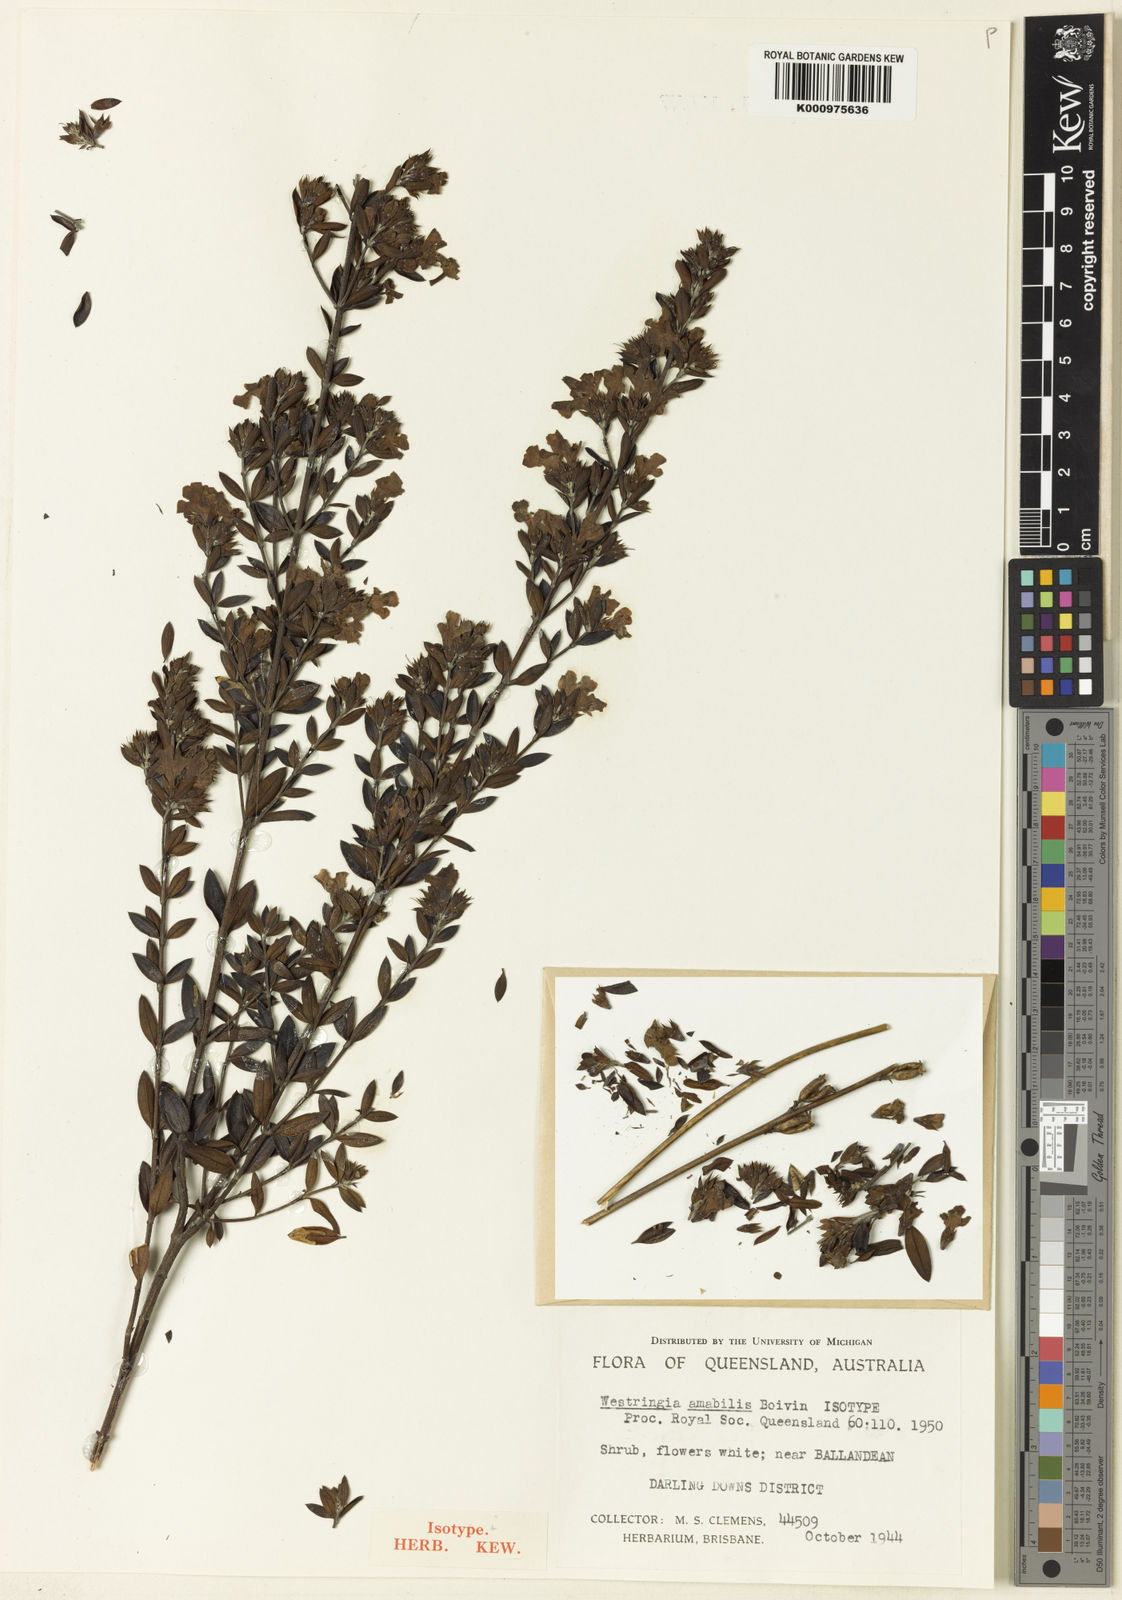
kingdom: Plantae
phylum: Tracheophyta
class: Magnoliopsida
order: Lamiales
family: Lamiaceae
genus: Westringia
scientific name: Westringia amabilis
